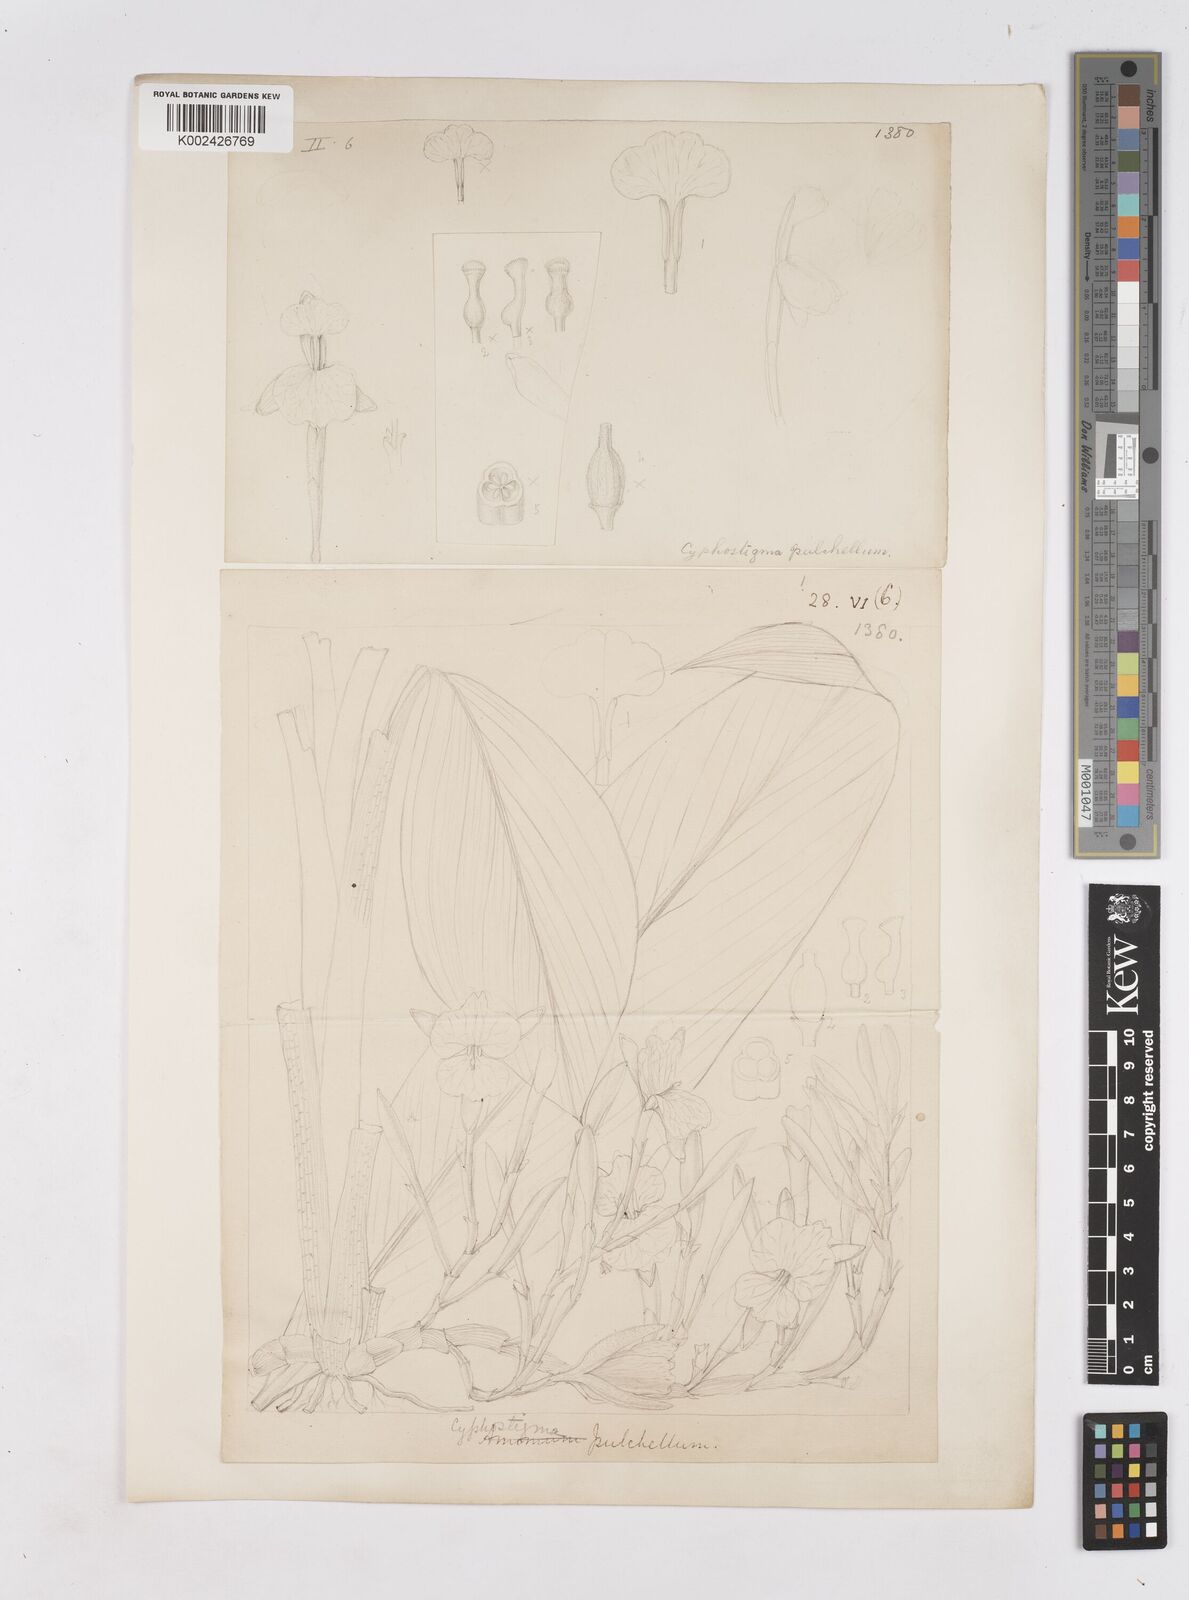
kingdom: Plantae
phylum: Tracheophyta
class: Liliopsida
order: Zingiberales
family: Zingiberaceae
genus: Cyphostigma
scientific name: Cyphostigma pulchellum
